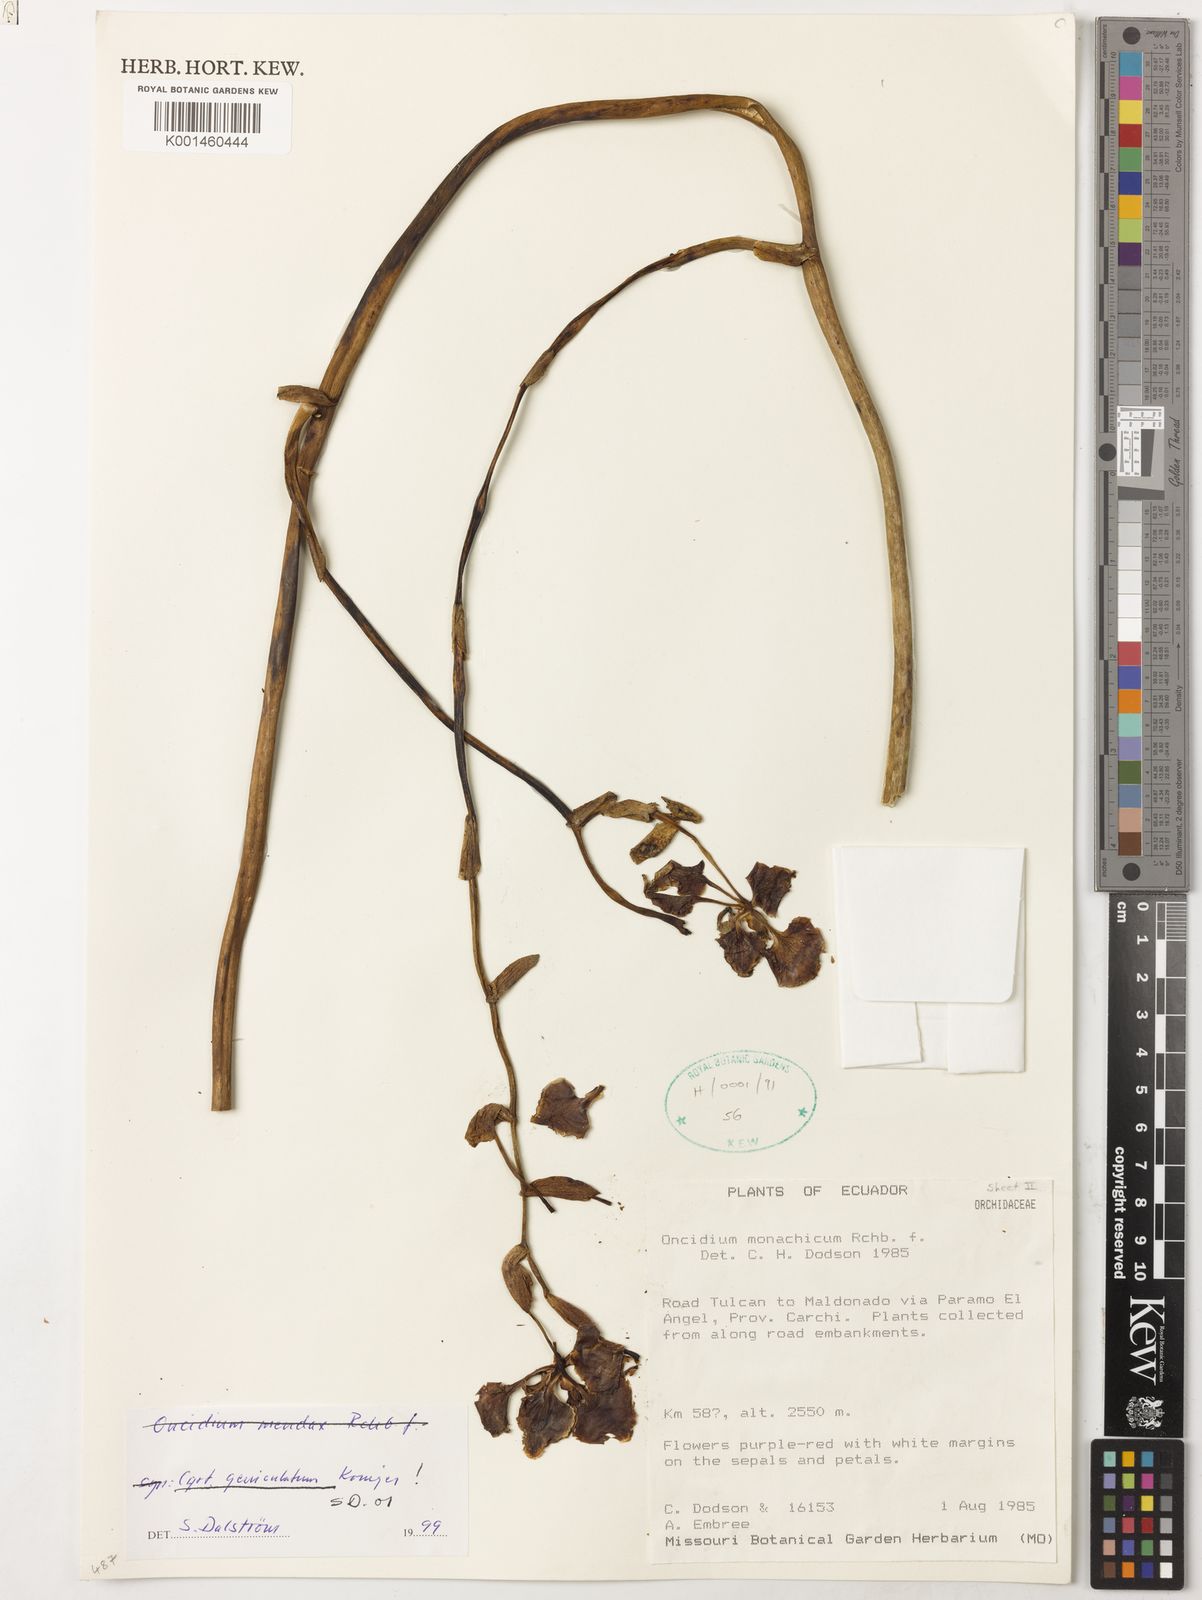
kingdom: Plantae
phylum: Tracheophyta
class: Liliopsida
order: Asparagales
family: Orchidaceae
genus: Cyrtochilum
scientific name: Cyrtochilum mendax
